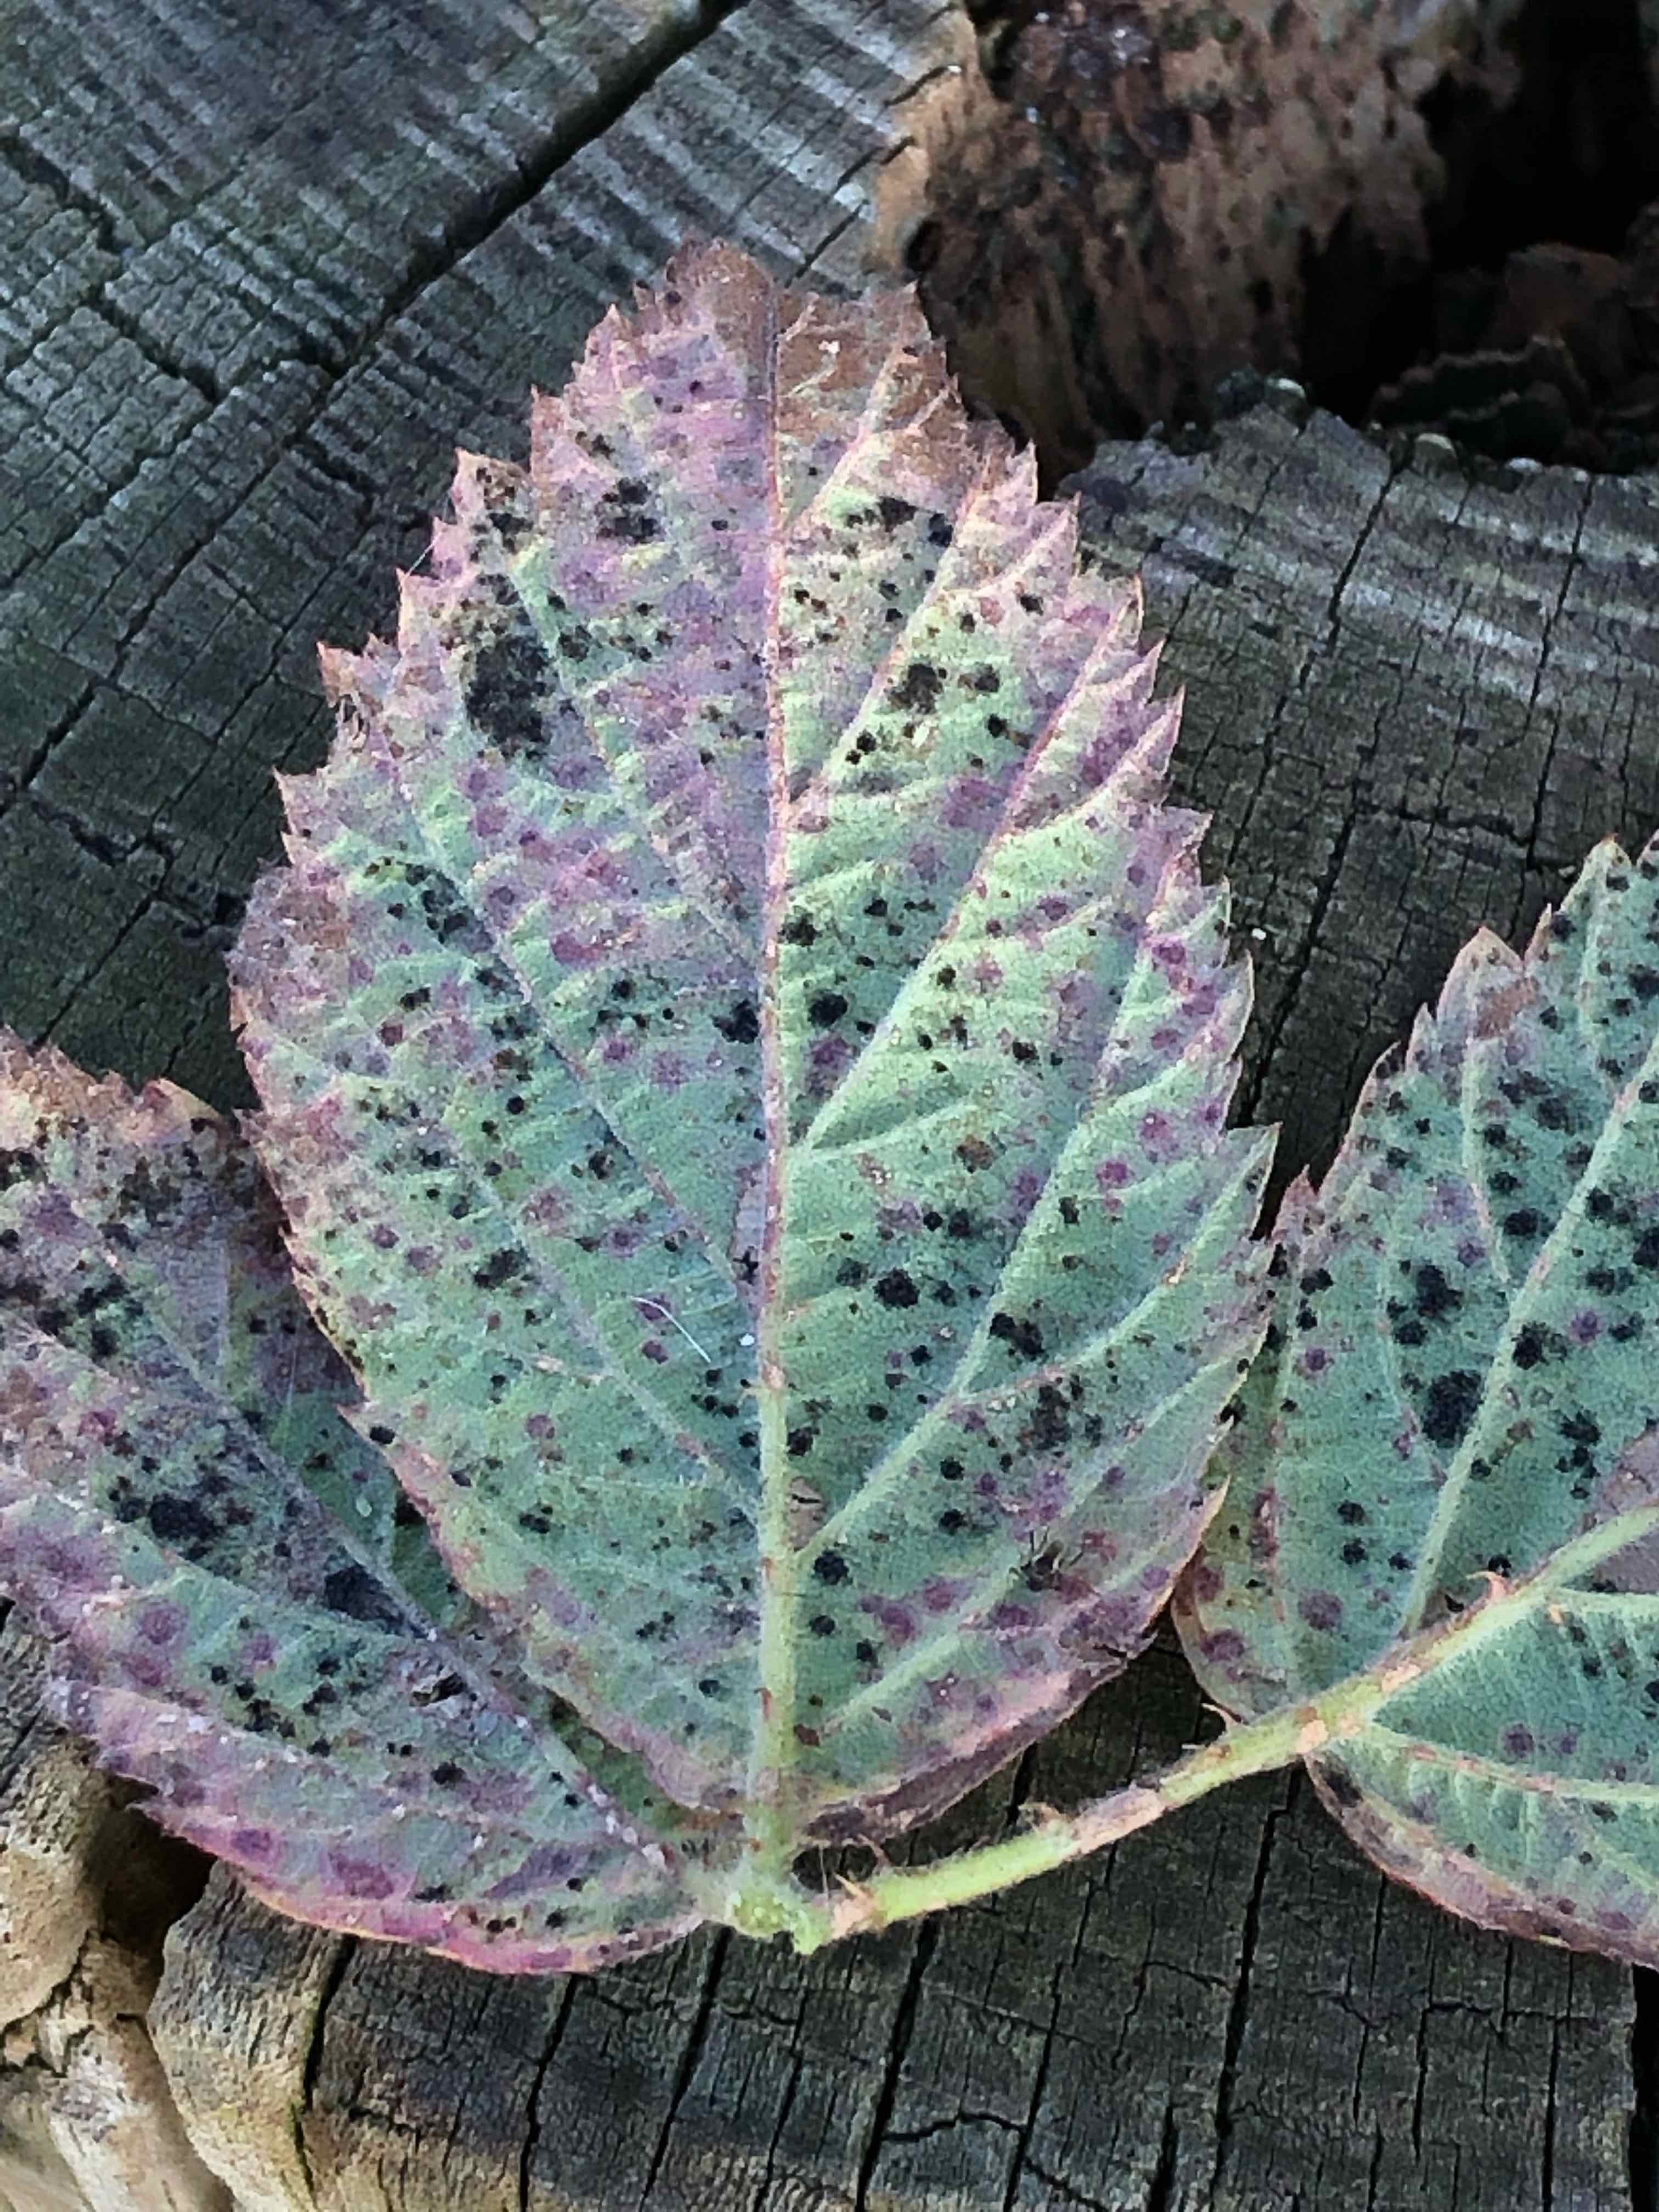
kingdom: Fungi
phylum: Basidiomycota
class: Pucciniomycetes
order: Pucciniales
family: Phragmidiaceae
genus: Phragmidium
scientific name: Phragmidium
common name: flercellerust
